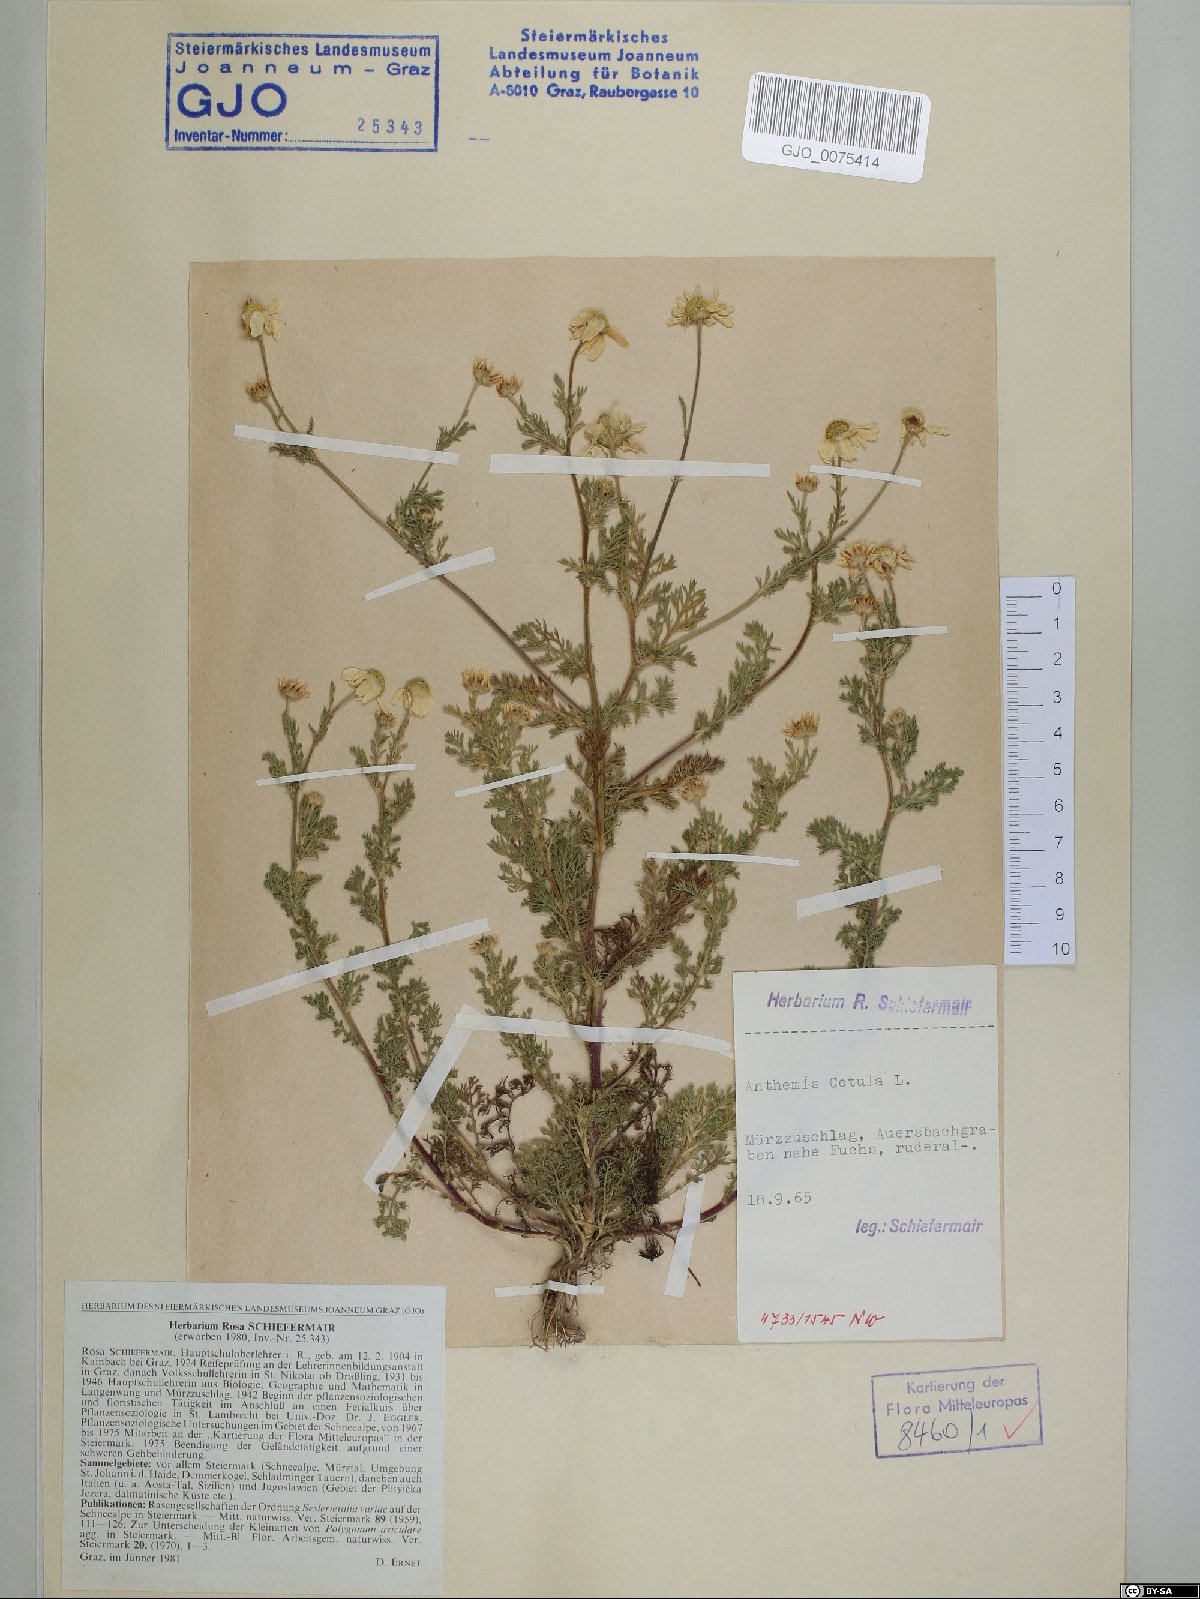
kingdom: Plantae
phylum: Tracheophyta
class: Magnoliopsida
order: Asterales
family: Asteraceae
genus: Anthemis
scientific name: Anthemis cotula
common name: Stinking chamomile
